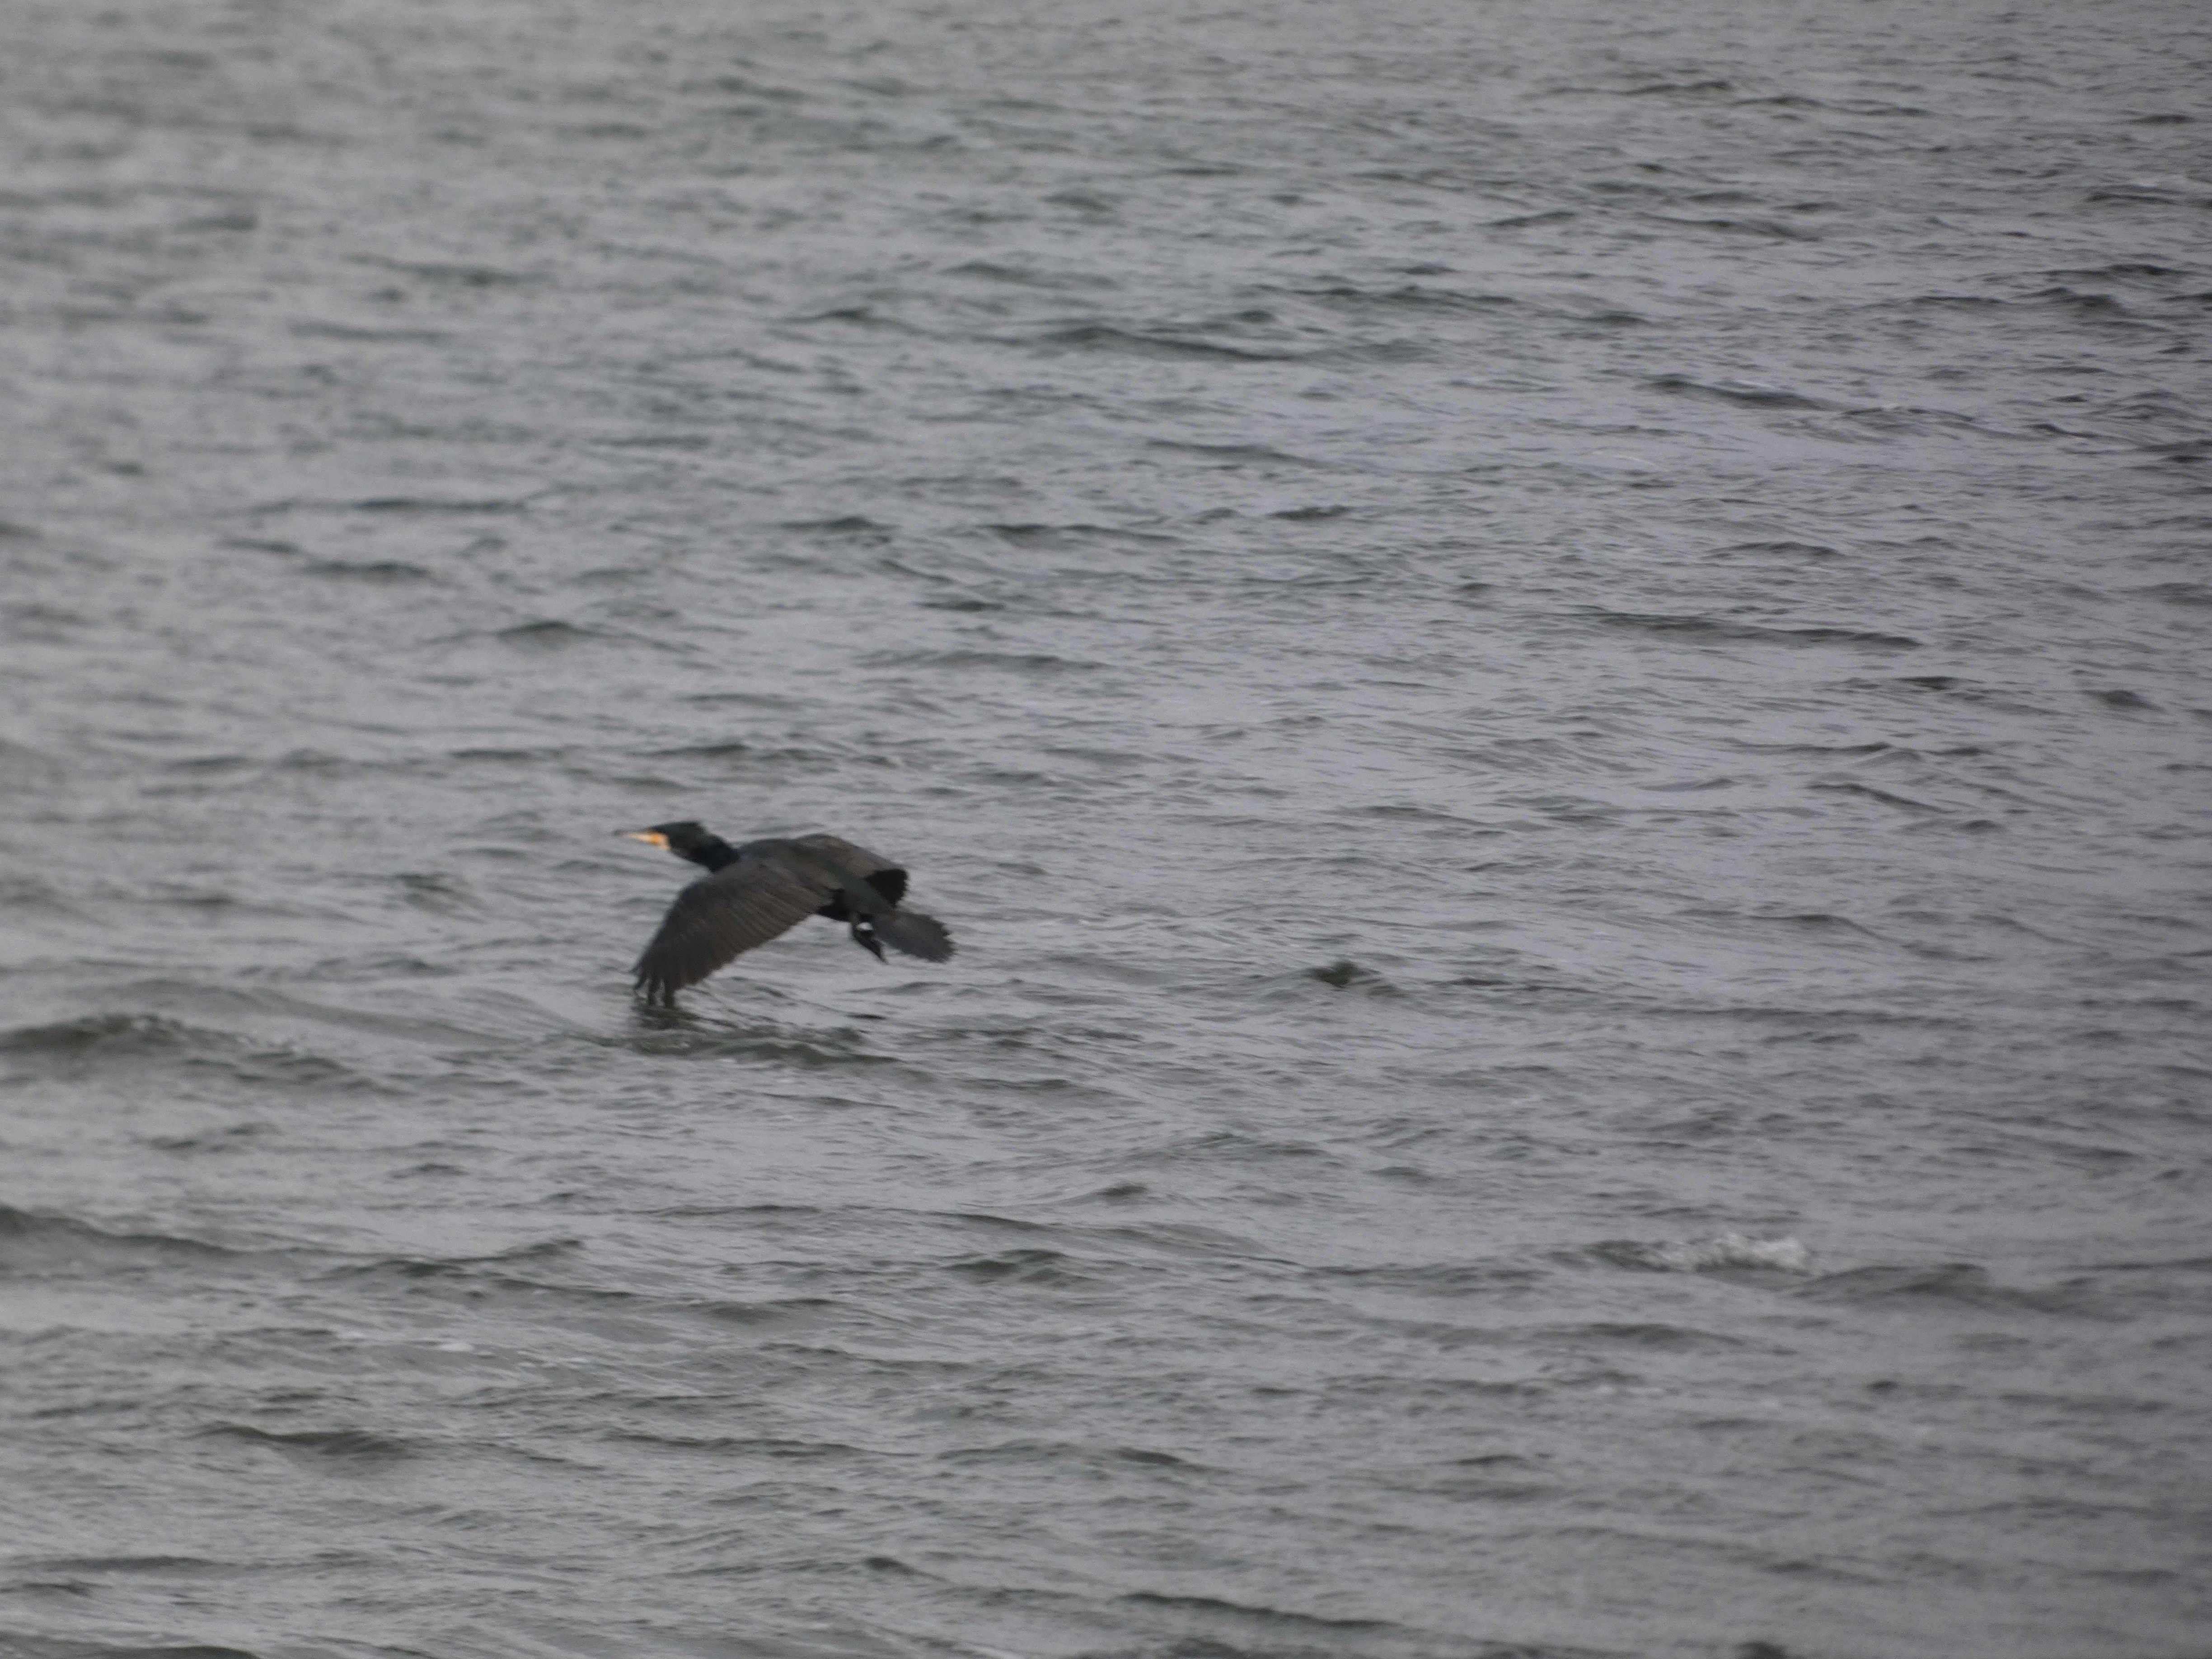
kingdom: Animalia
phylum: Chordata
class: Aves
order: Suliformes
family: Phalacrocoracidae
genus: Phalacrocorax
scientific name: Phalacrocorax carbo
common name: Skarv
